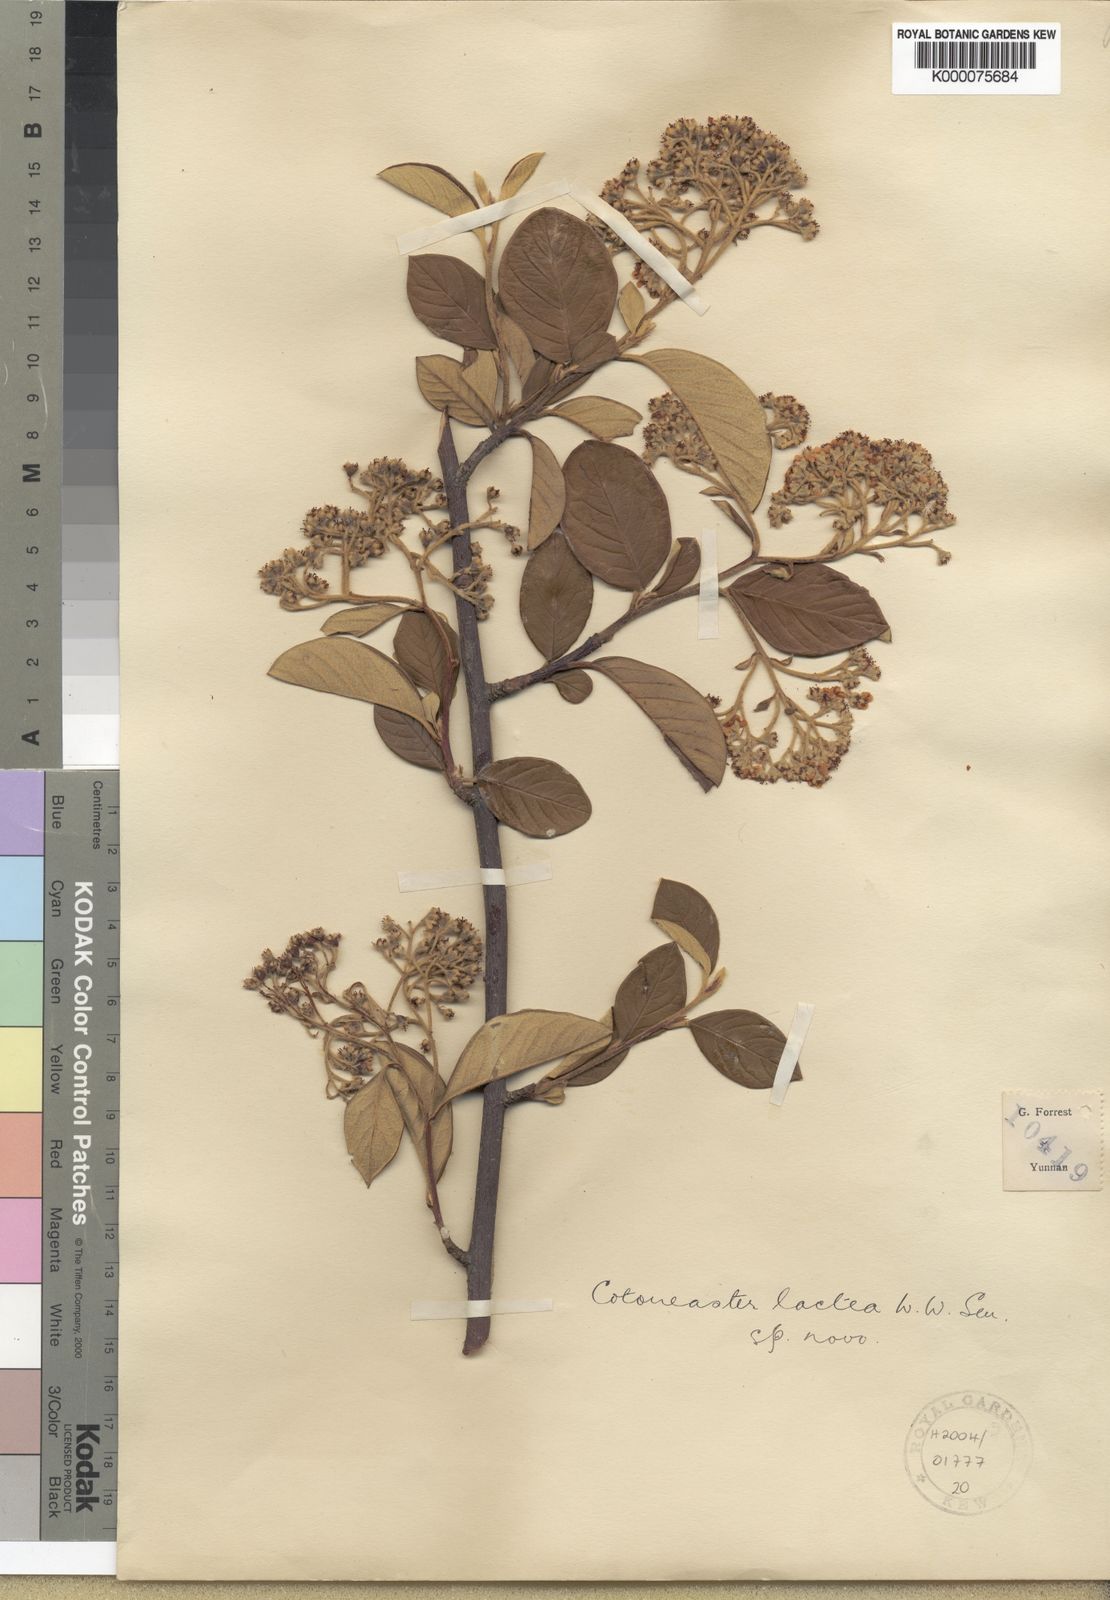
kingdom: Plantae
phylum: Tracheophyta
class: Magnoliopsida
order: Rosales
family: Rosaceae
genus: Cotoneaster
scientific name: Cotoneaster coriaceus
